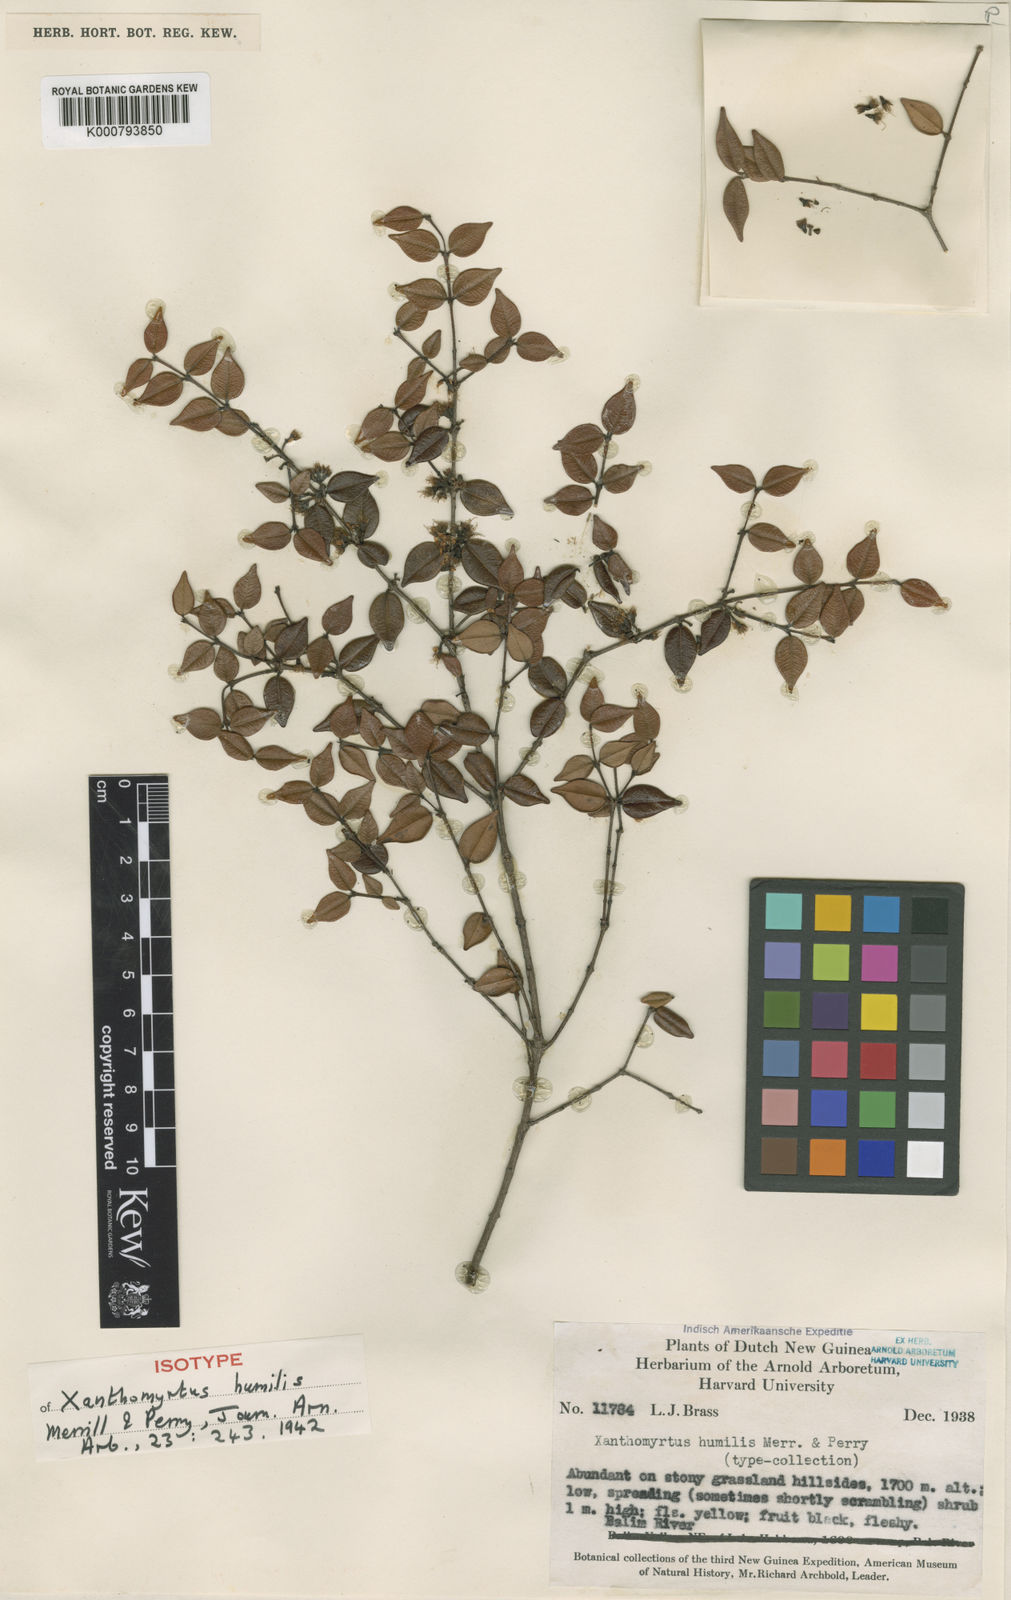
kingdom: Plantae
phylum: Tracheophyta
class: Magnoliopsida
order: Myrtales
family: Myrtaceae
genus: Xanthomyrtus
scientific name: Xanthomyrtus humilis
